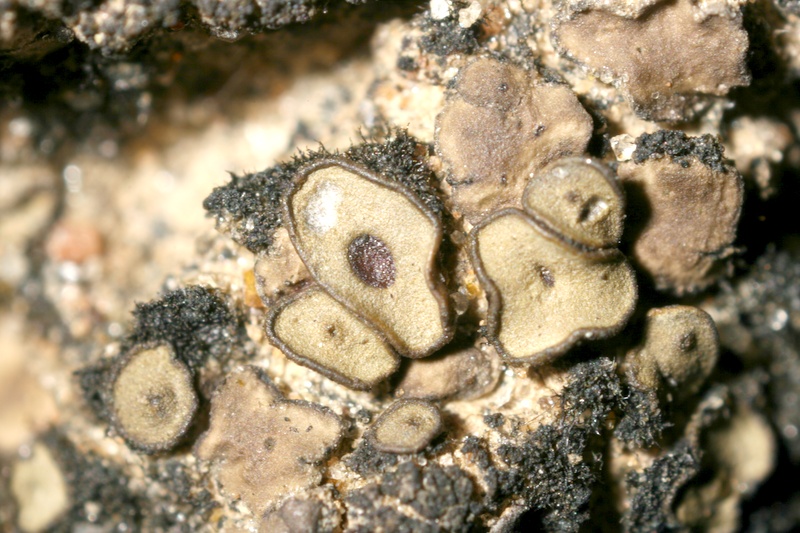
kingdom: Fungi
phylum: Ascomycota
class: Lichinomycetes
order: Lichinales
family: Peltulaceae
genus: Peltula
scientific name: Peltula patellata
